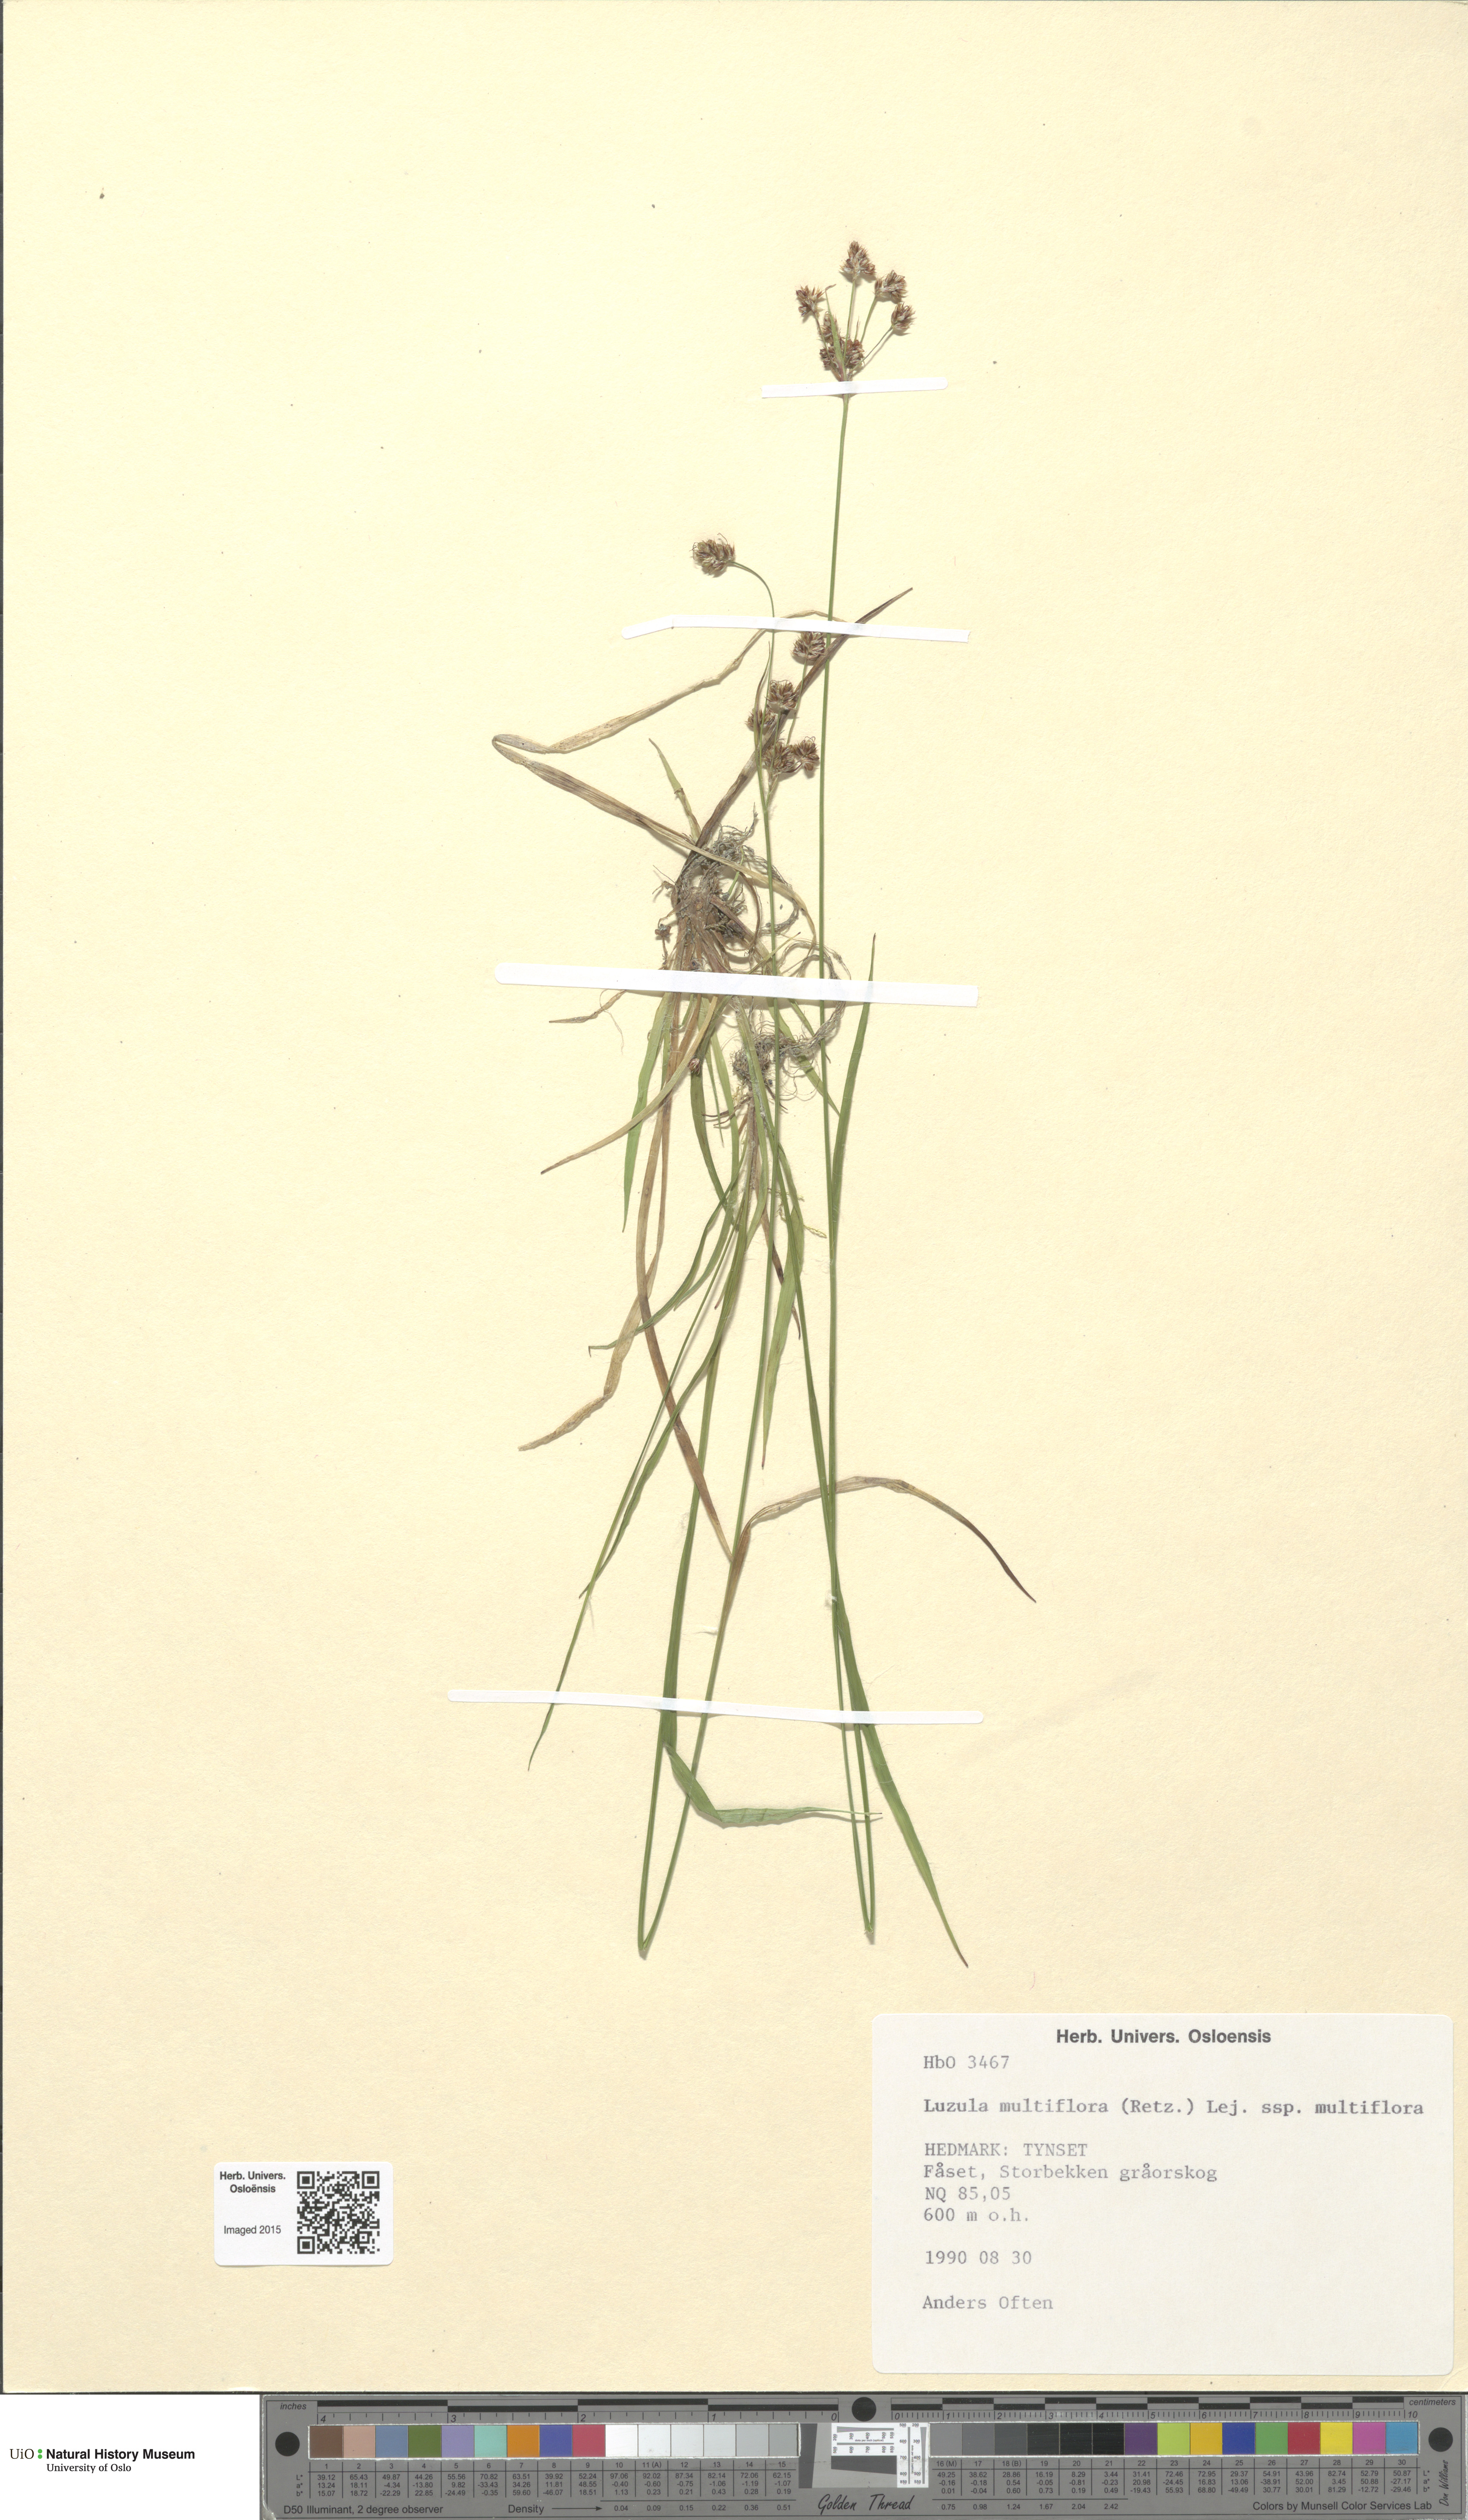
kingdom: Plantae
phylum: Tracheophyta
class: Liliopsida
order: Poales
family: Juncaceae
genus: Luzula
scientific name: Luzula multiflora
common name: Heath wood-rush
